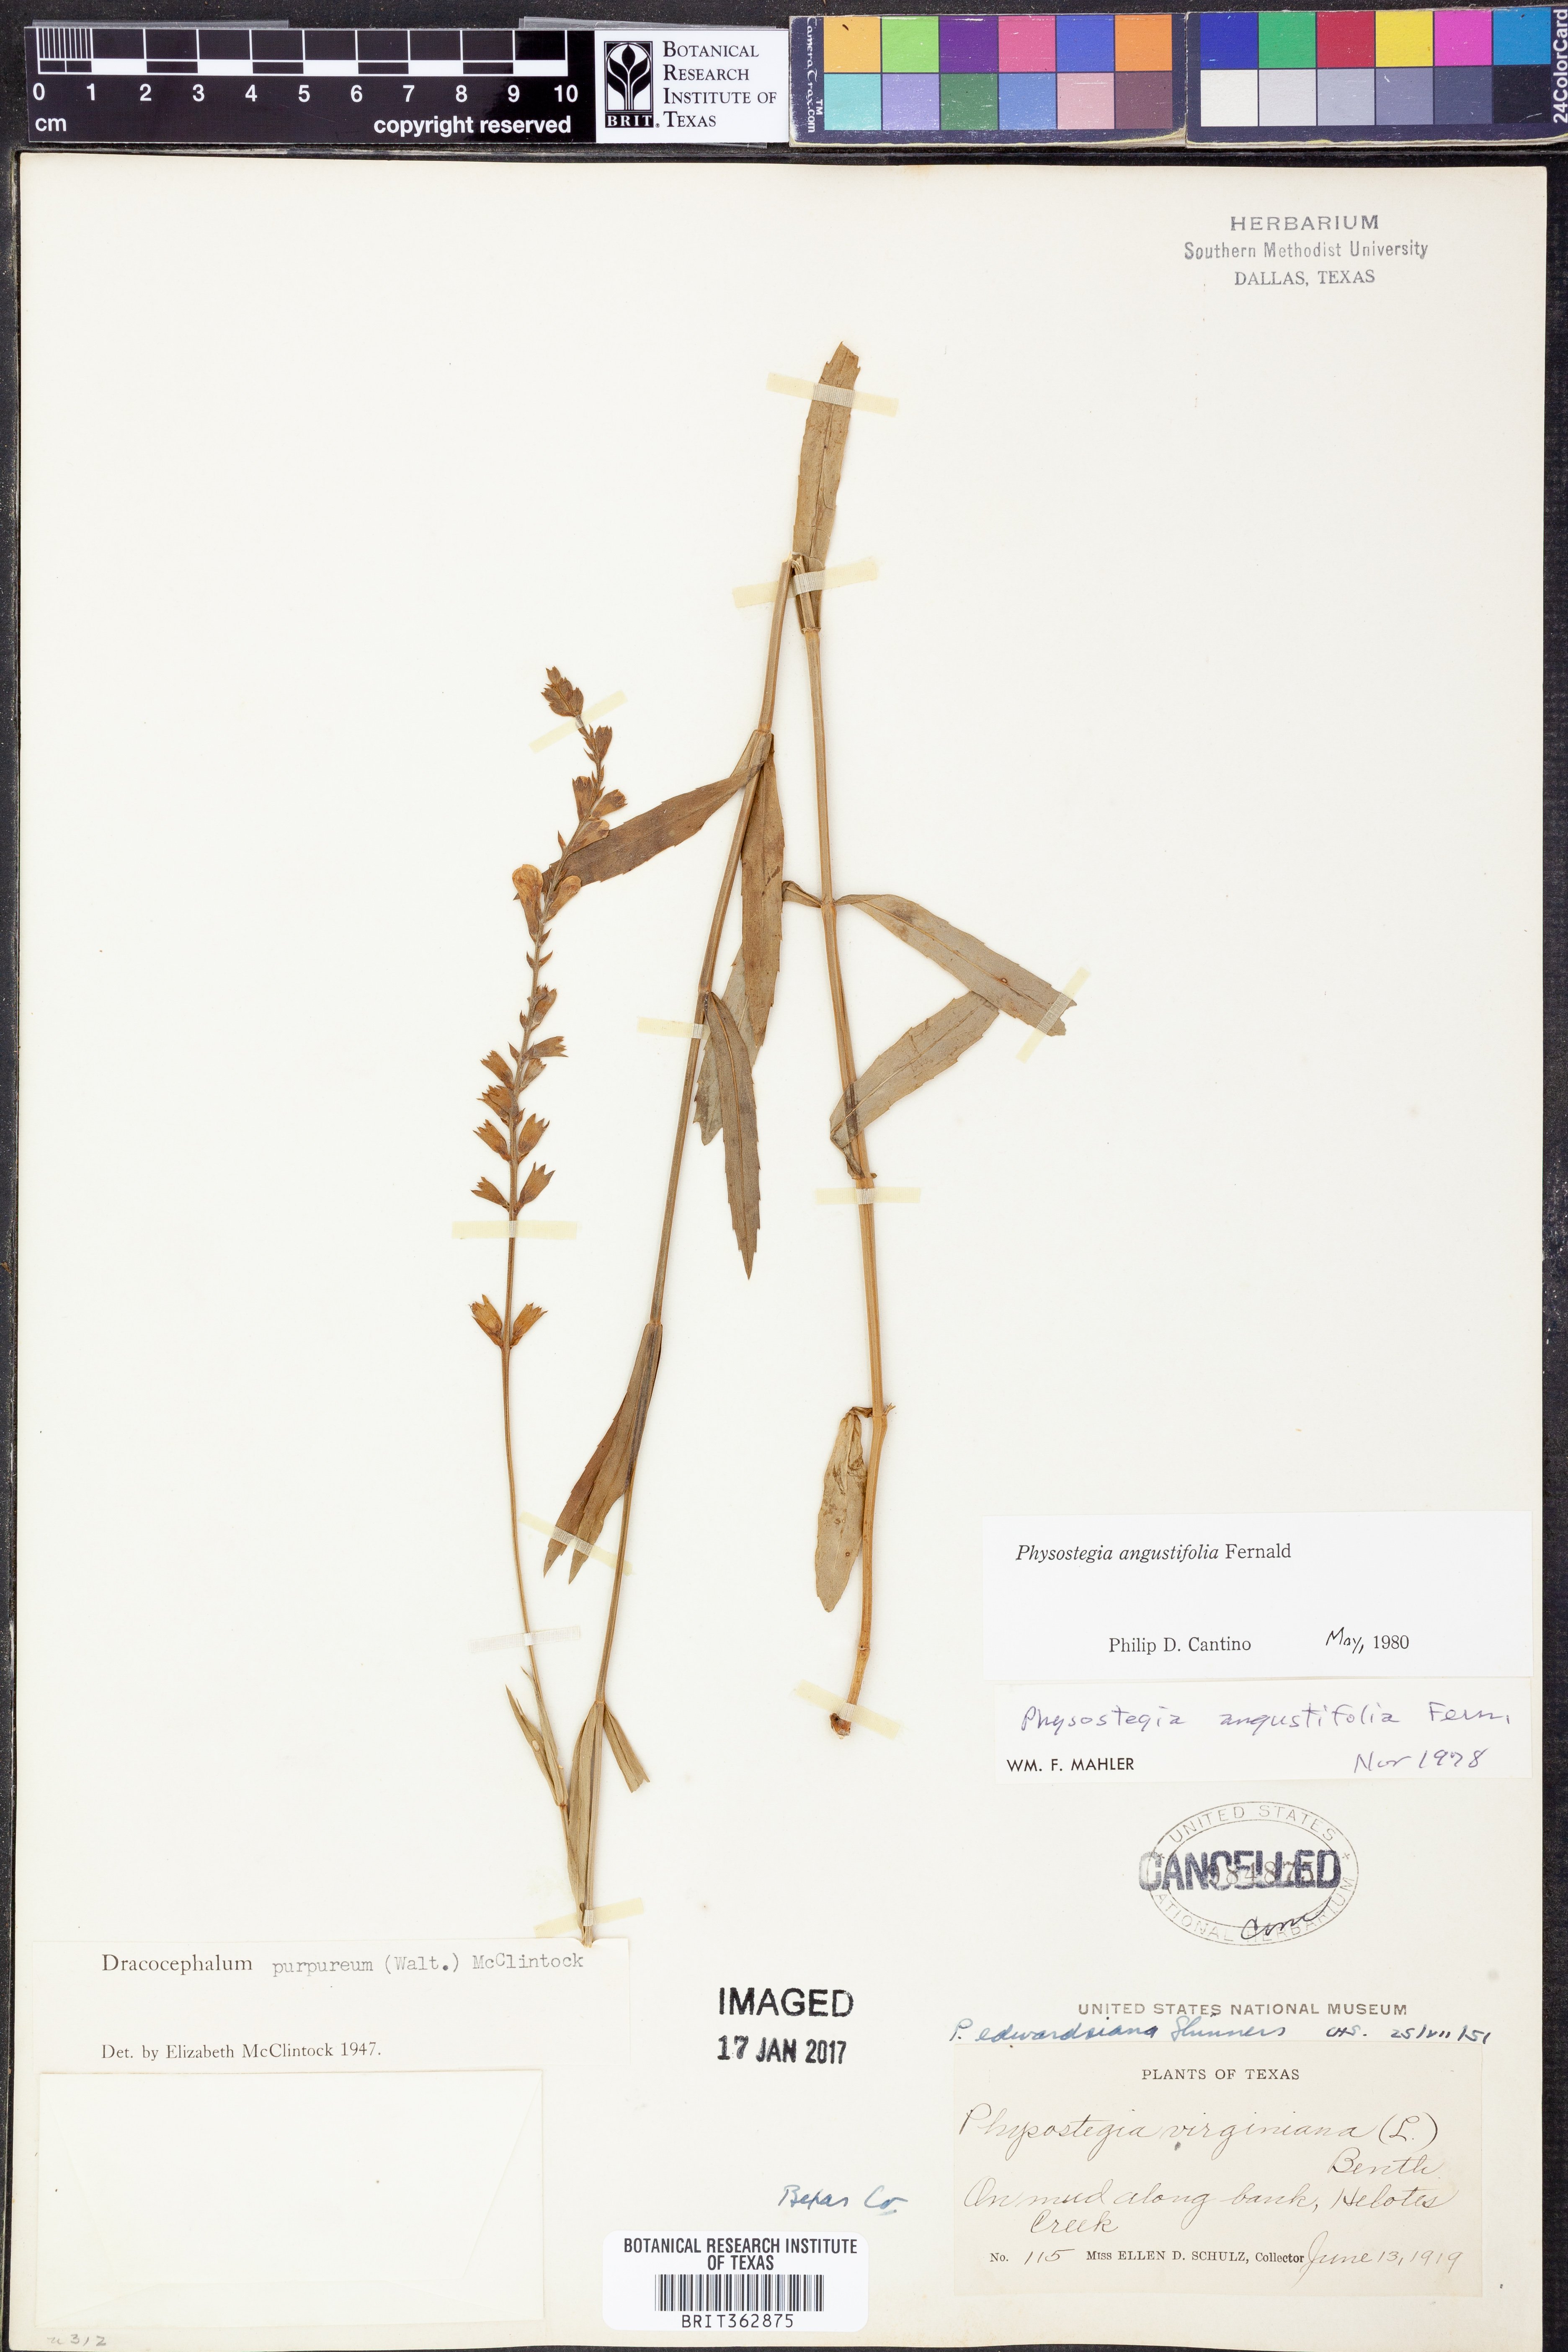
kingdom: Plantae
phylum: Tracheophyta
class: Magnoliopsida
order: Lamiales
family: Lamiaceae
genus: Physostegia
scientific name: Physostegia angustifolia
